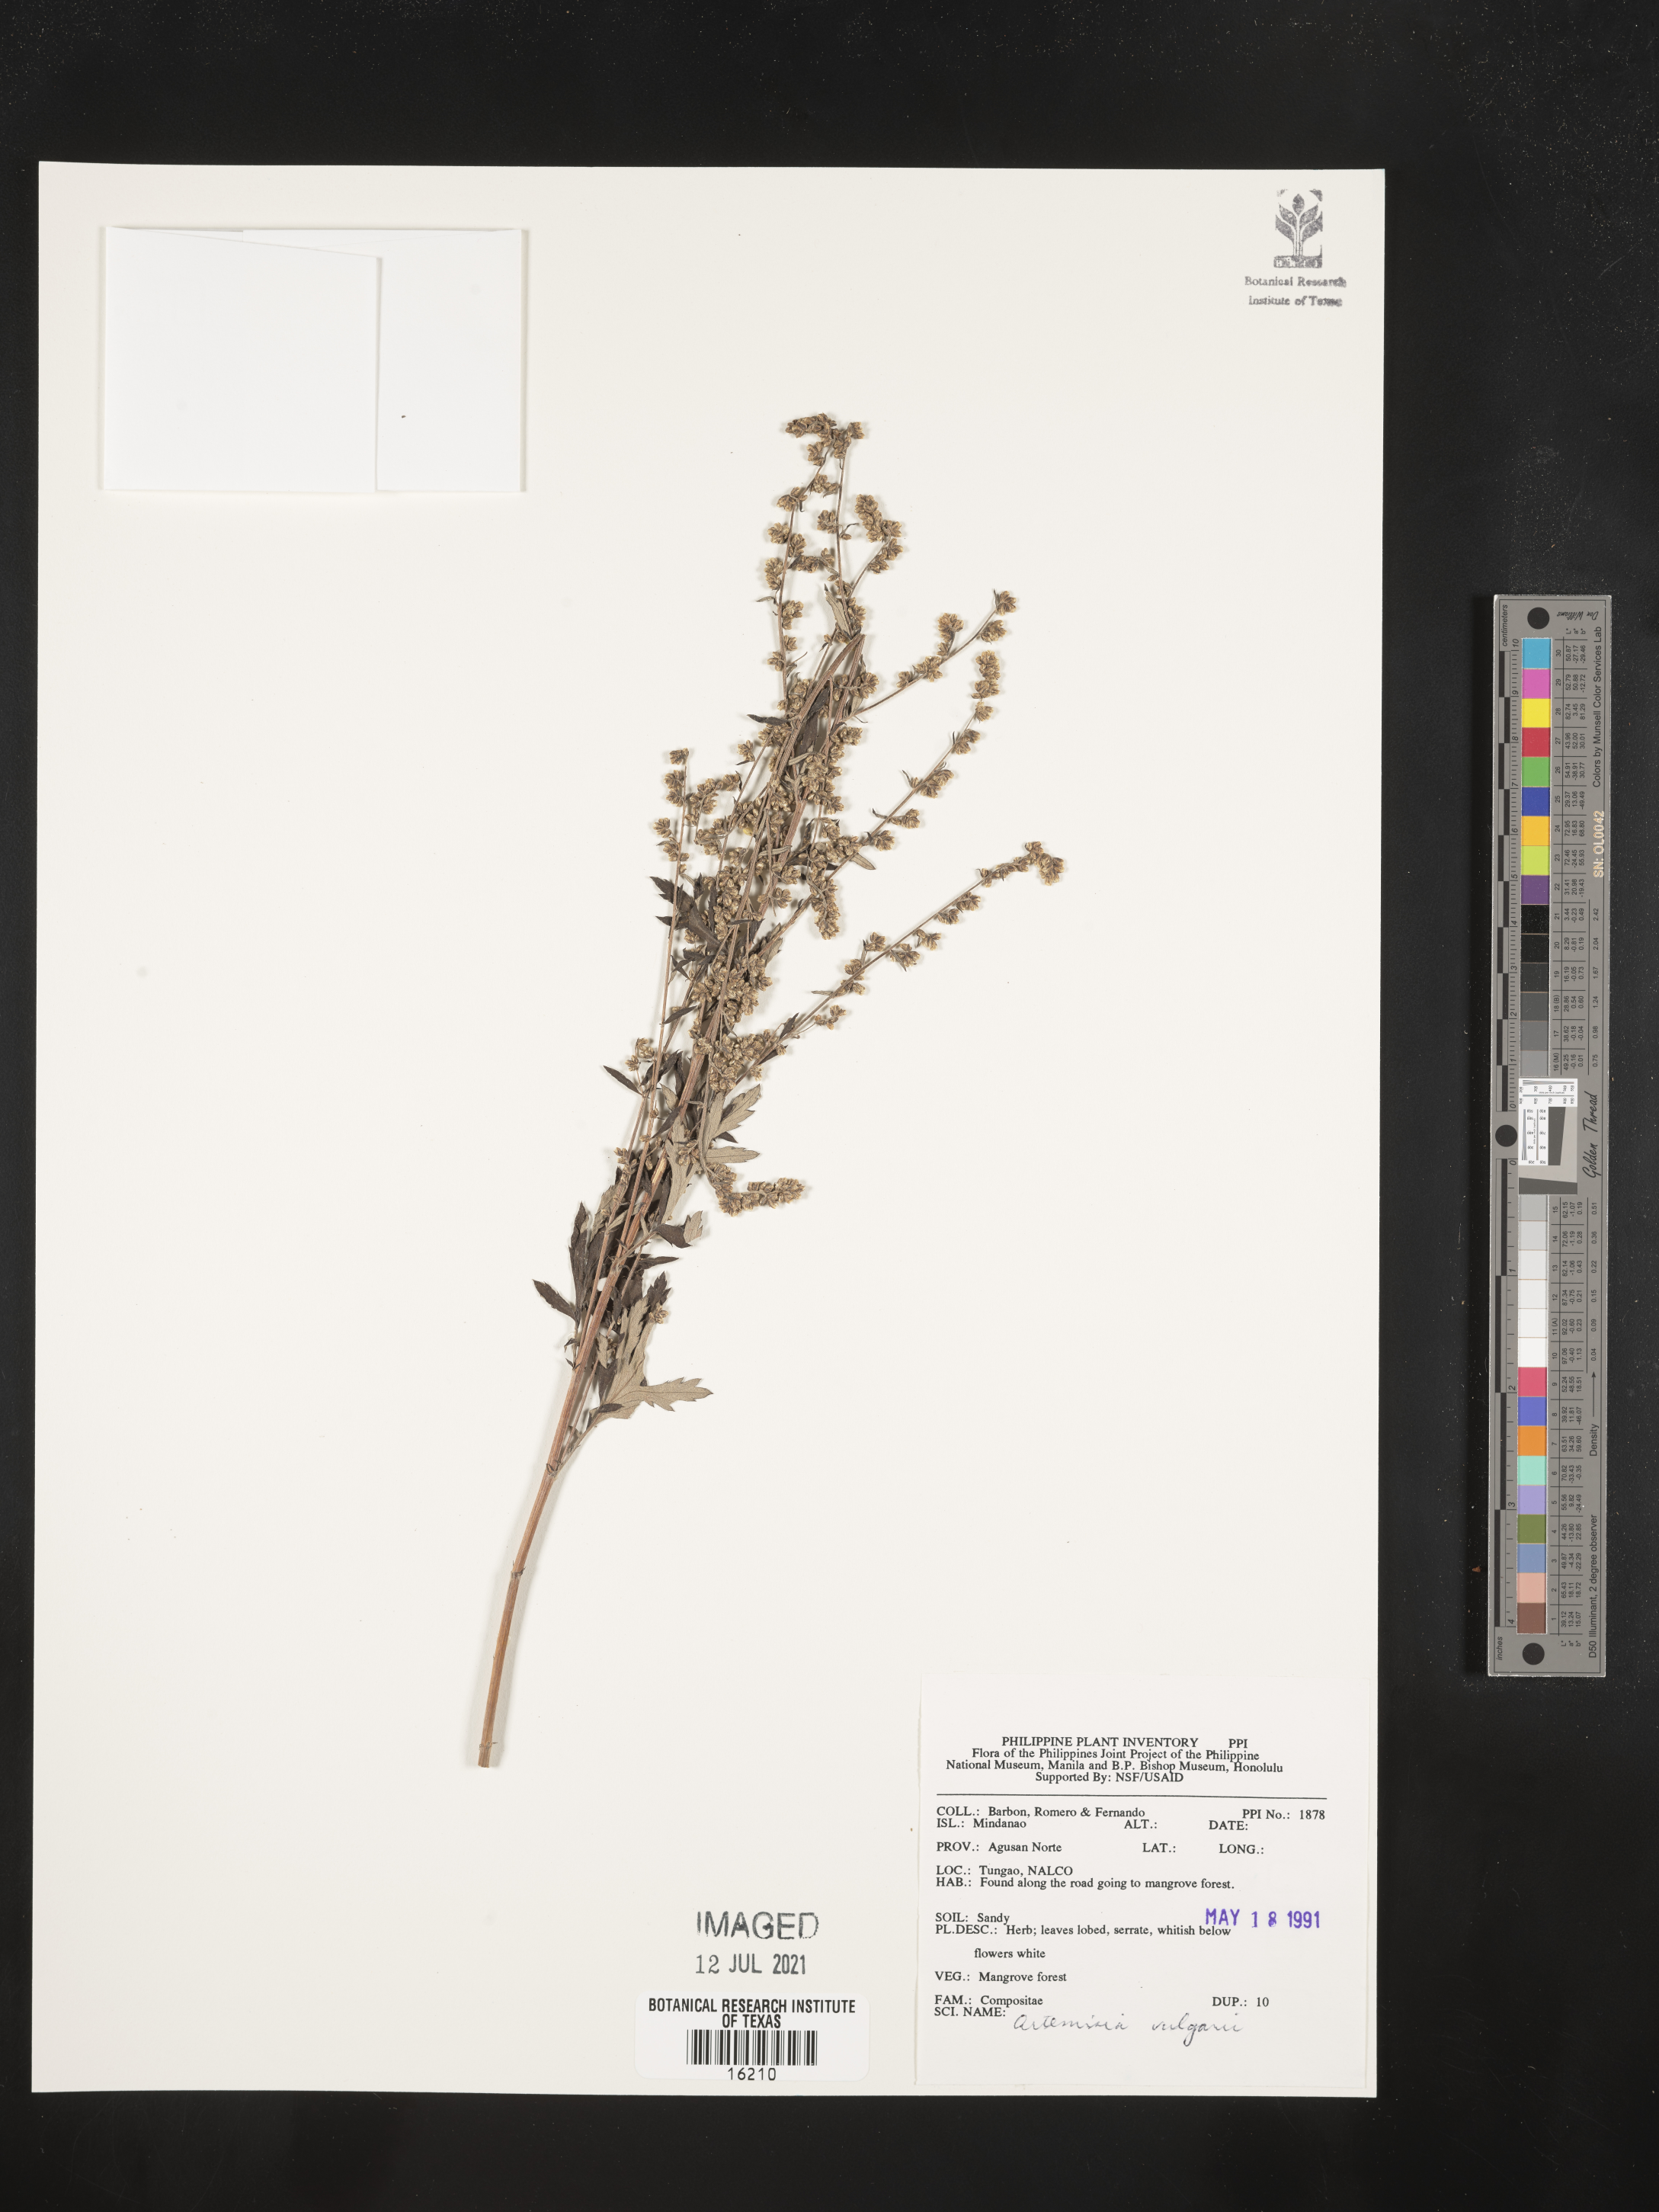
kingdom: Plantae
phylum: Tracheophyta
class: Magnoliopsida
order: Asterales
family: Asteraceae
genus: Artemisia
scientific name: Artemisia vulgaris
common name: Mugwort
